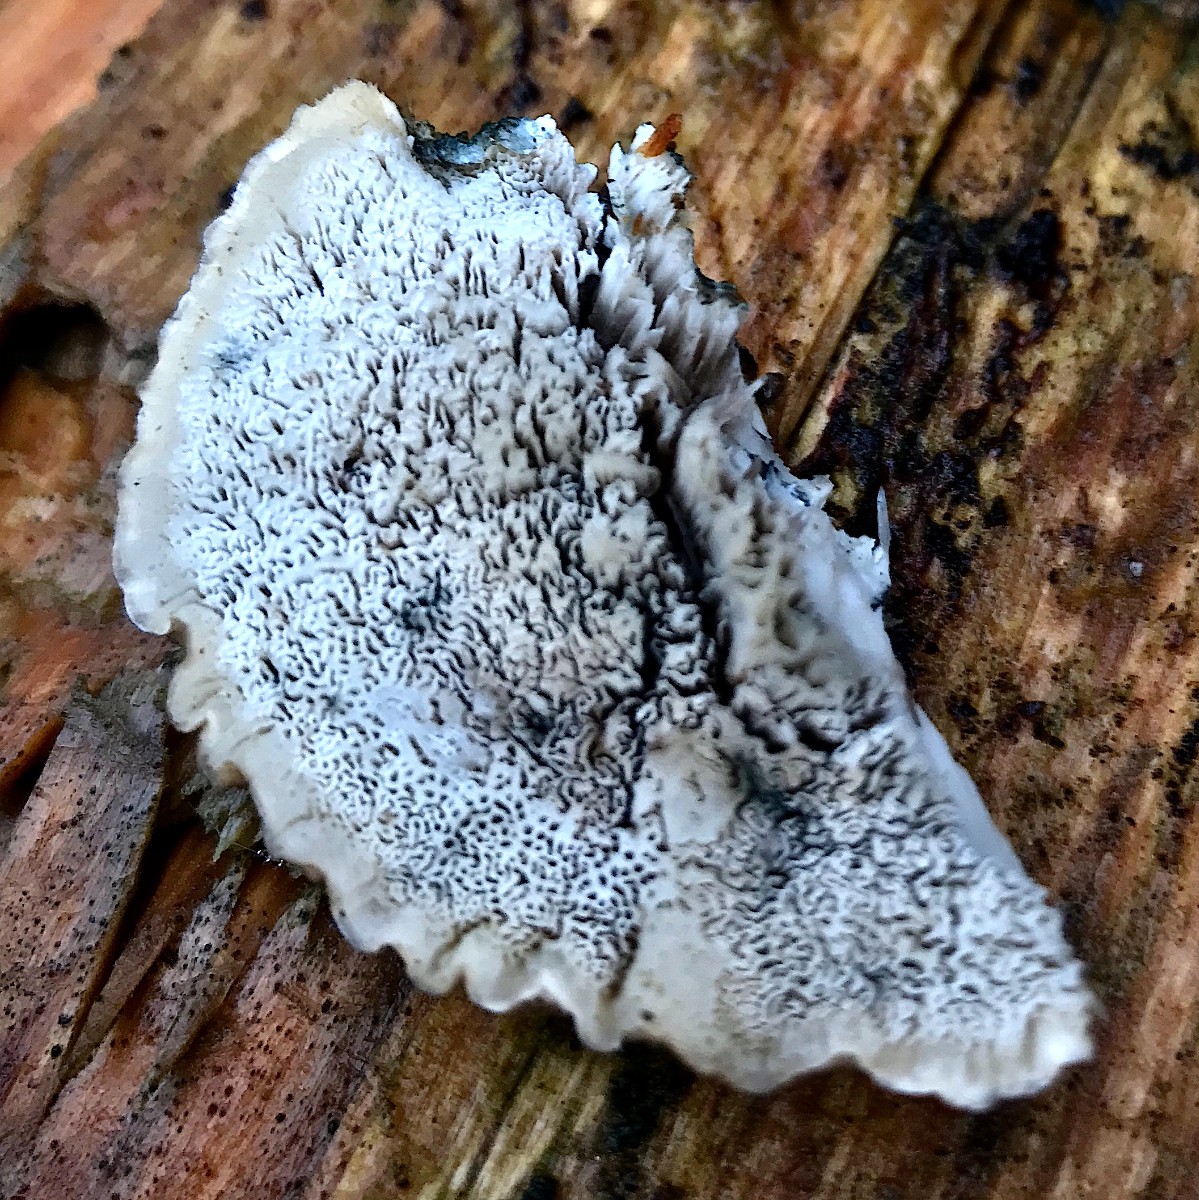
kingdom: Fungi
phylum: Basidiomycota
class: Agaricomycetes
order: Polyporales
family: Polyporaceae
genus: Cyanosporus
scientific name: Cyanosporus caesius
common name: blålig kødporesvamp
